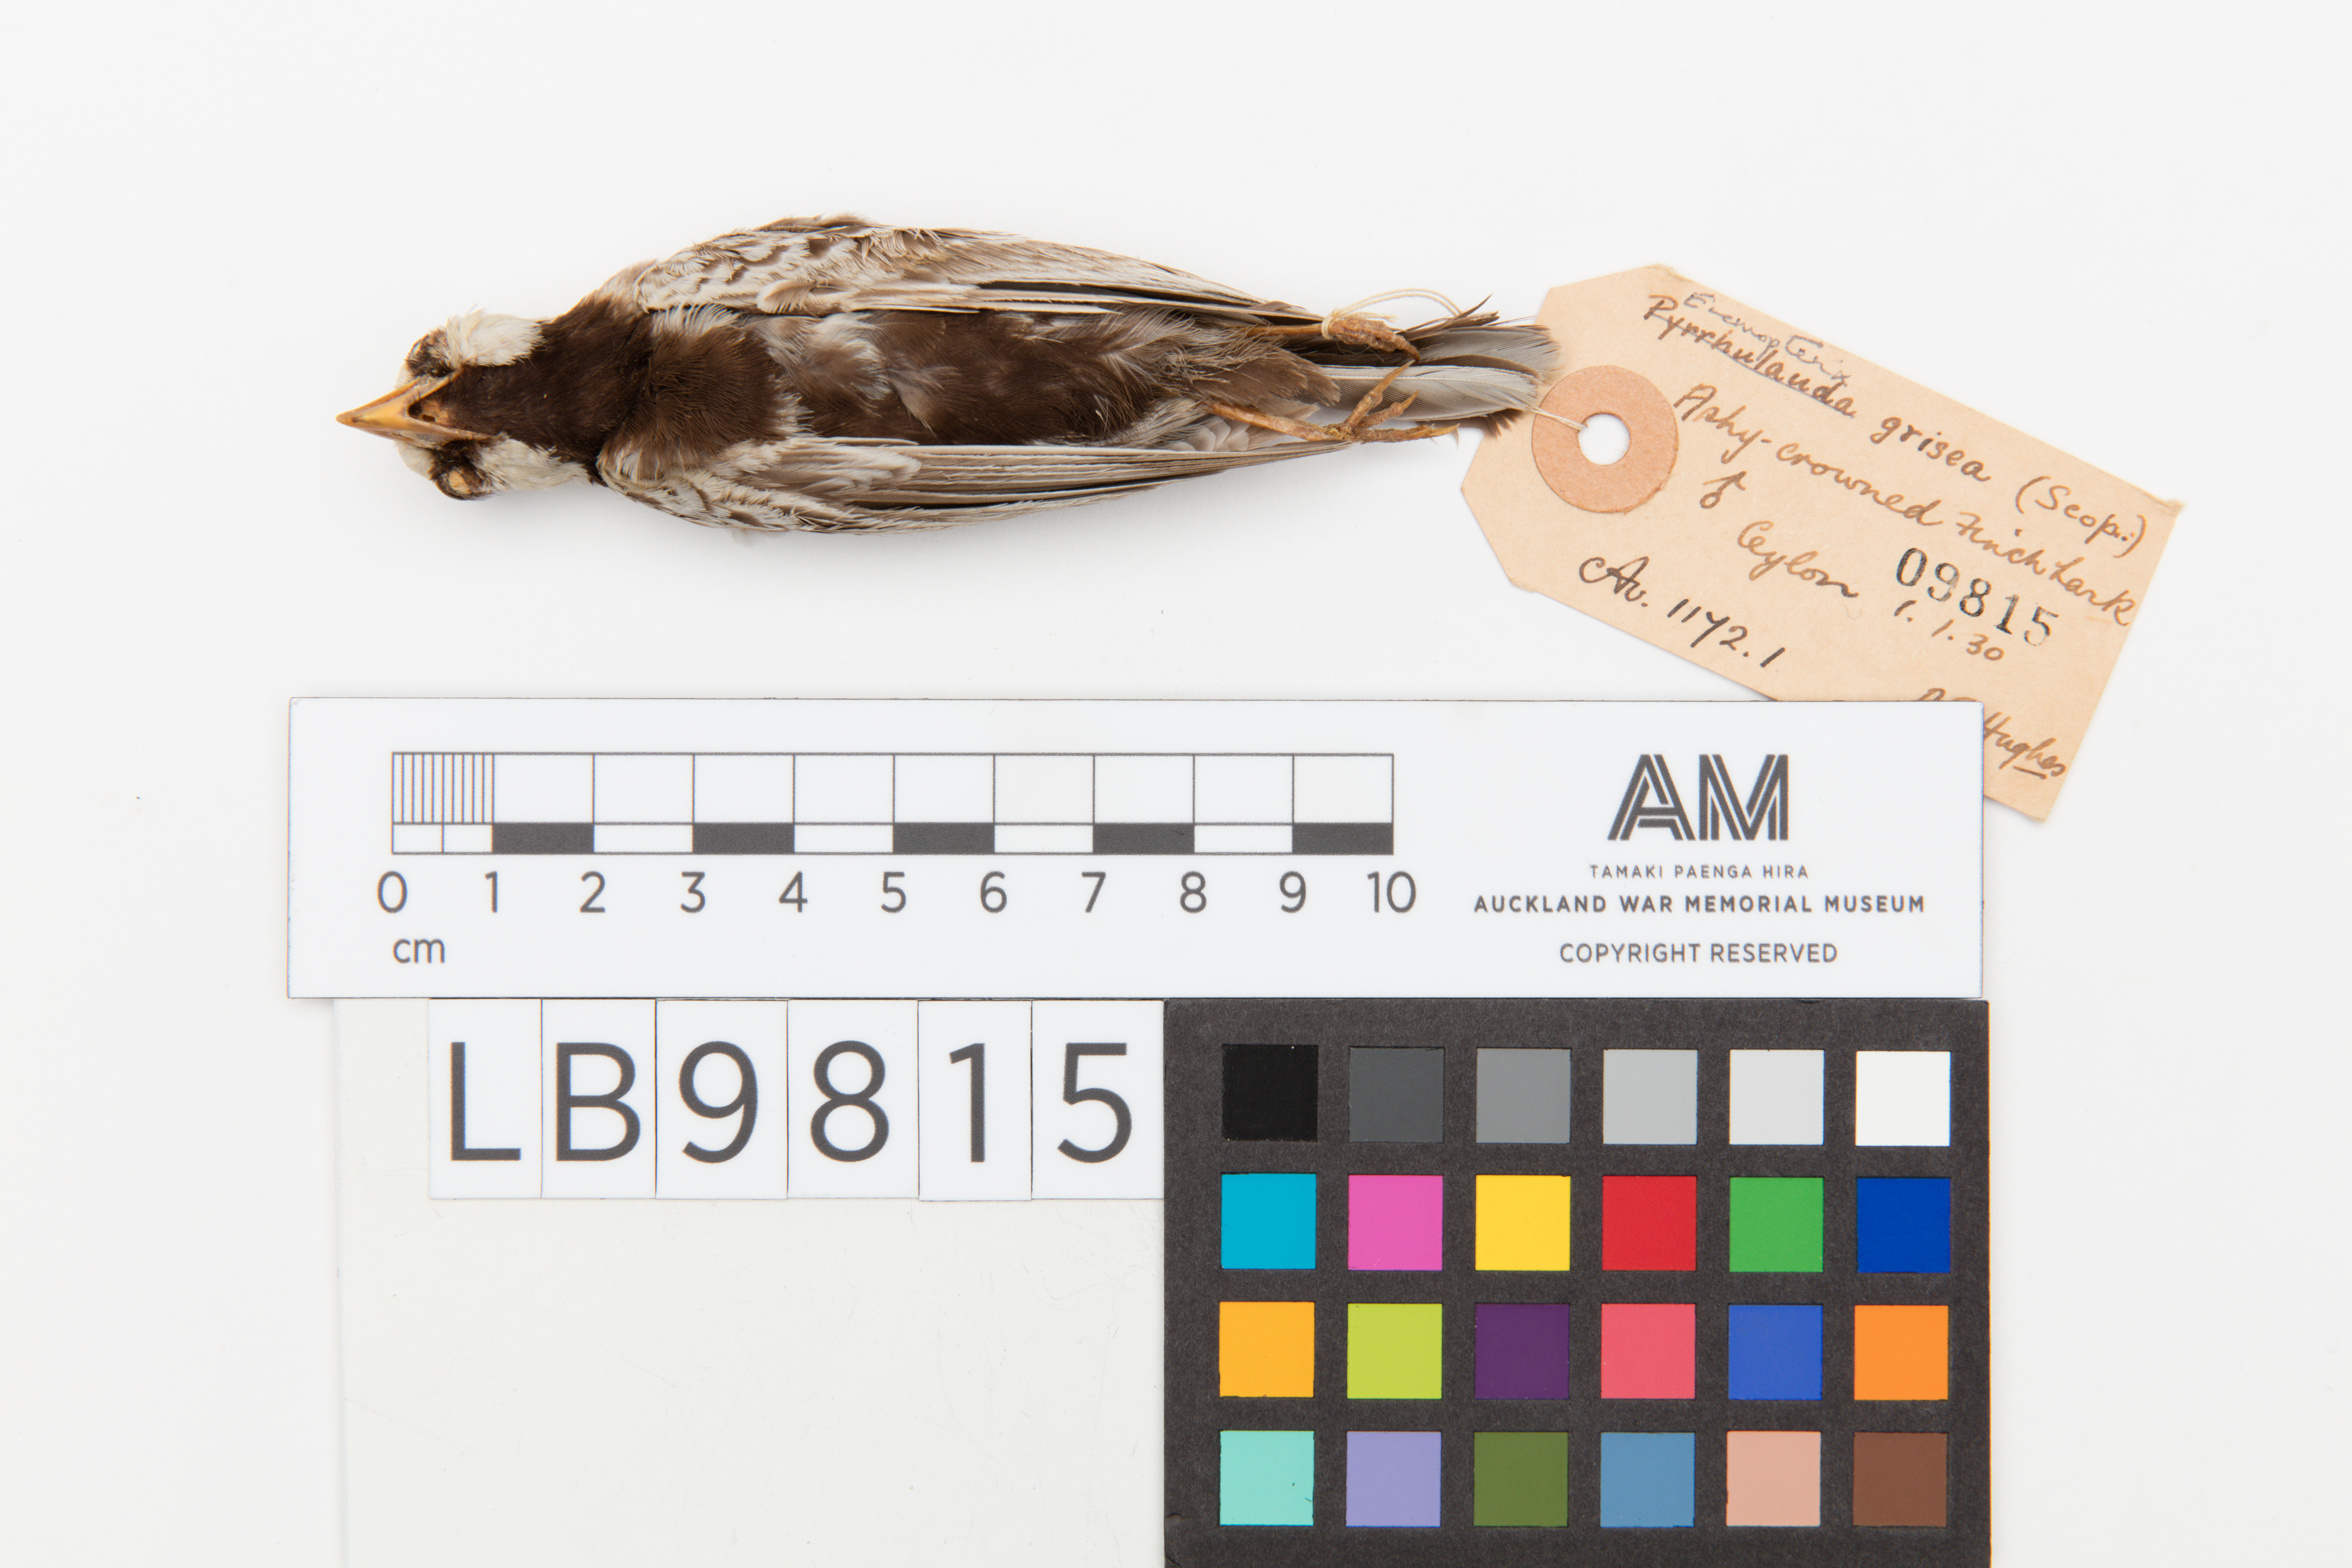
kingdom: Animalia
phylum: Chordata
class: Aves
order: Passeriformes
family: Alaudidae
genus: Eremopterix
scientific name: Eremopterix griseus
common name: Ashy-crowned sparrow-lark
